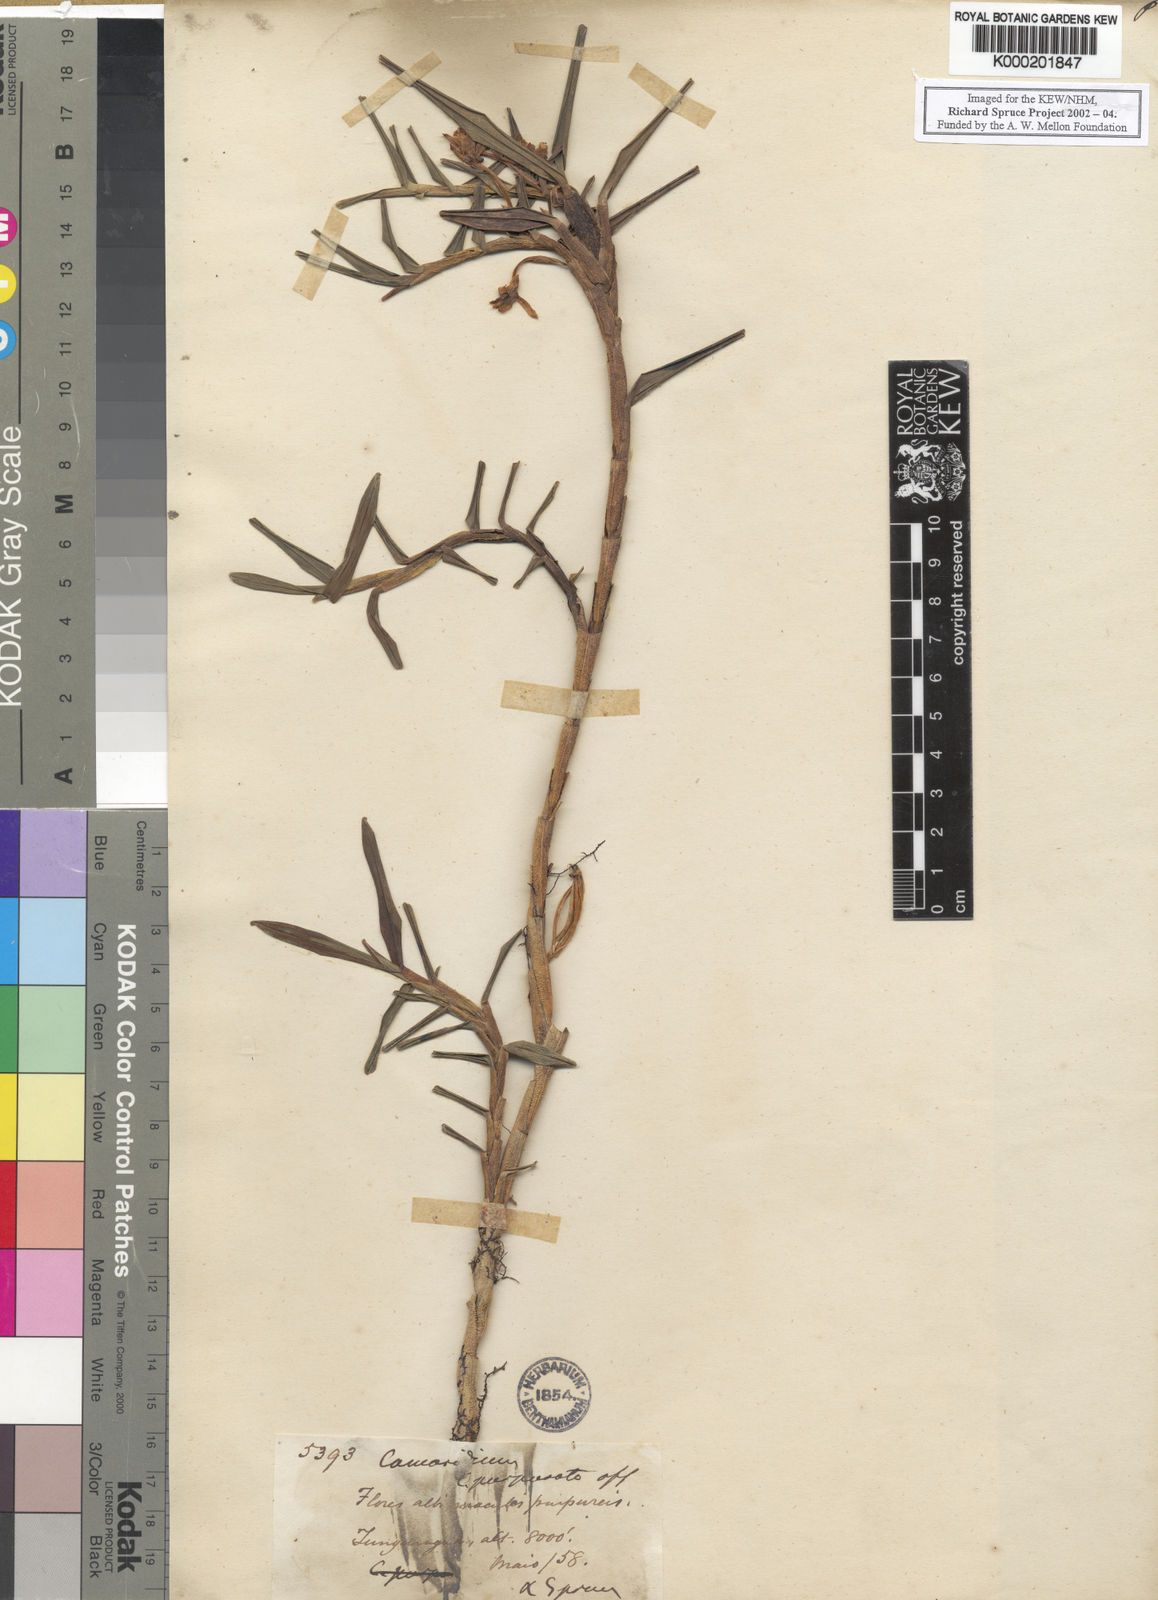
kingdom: Plantae
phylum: Tracheophyta
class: Liliopsida
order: Asparagales
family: Orchidaceae
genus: Maxillaria
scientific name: Maxillaria
